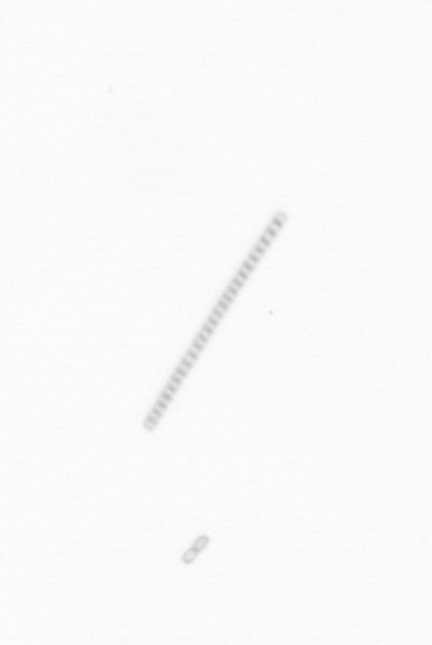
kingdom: Chromista
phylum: Ochrophyta
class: Bacillariophyceae
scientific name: Bacillariophyceae
